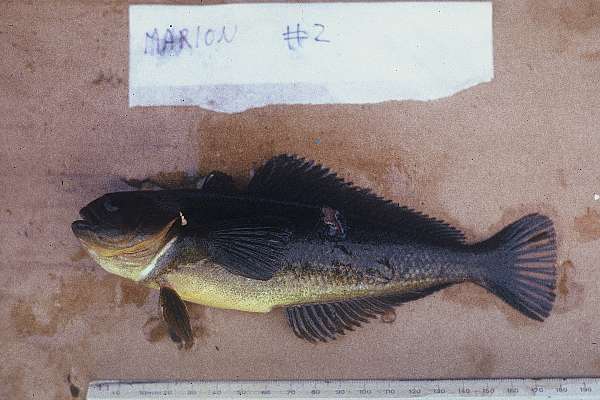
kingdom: Animalia
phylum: Chordata
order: Perciformes
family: Nototheniidae
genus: Notothenia
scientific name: Notothenia coriiceps
